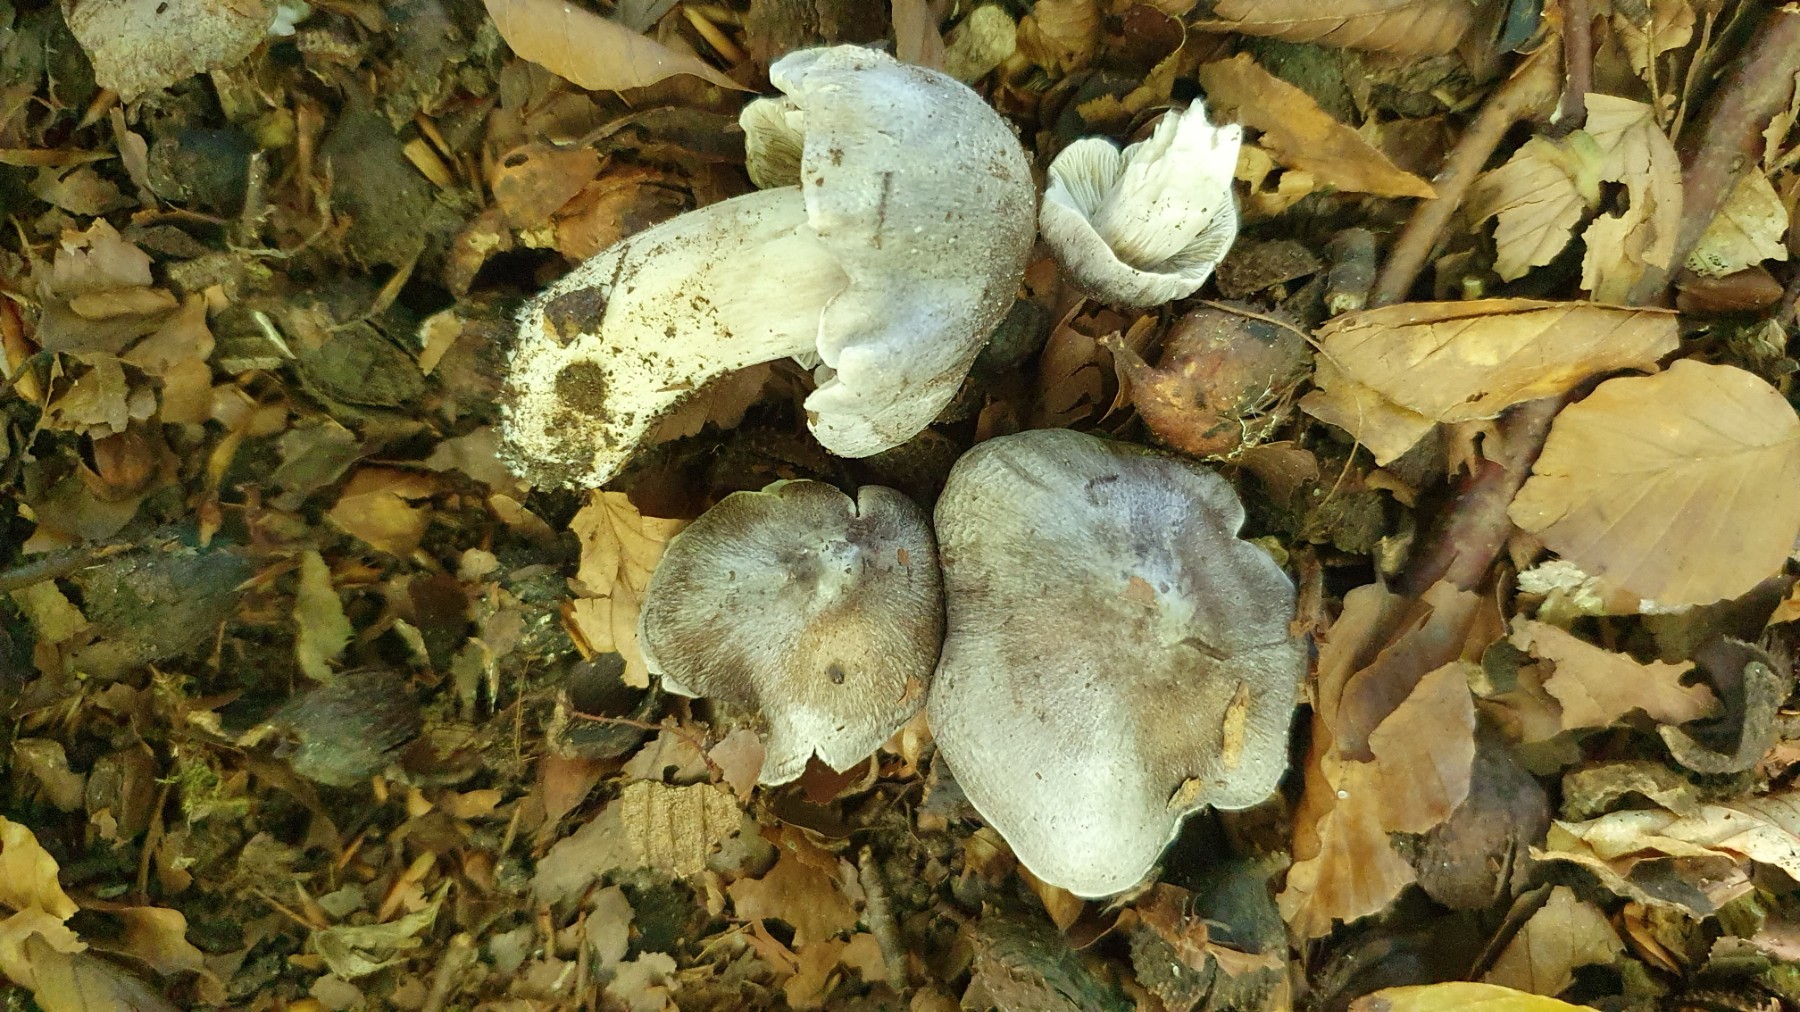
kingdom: Fungi
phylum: Basidiomycota
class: Agaricomycetes
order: Agaricales
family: Tricholomataceae
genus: Tricholoma
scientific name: Tricholoma sciodes
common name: stribet ridderhat
